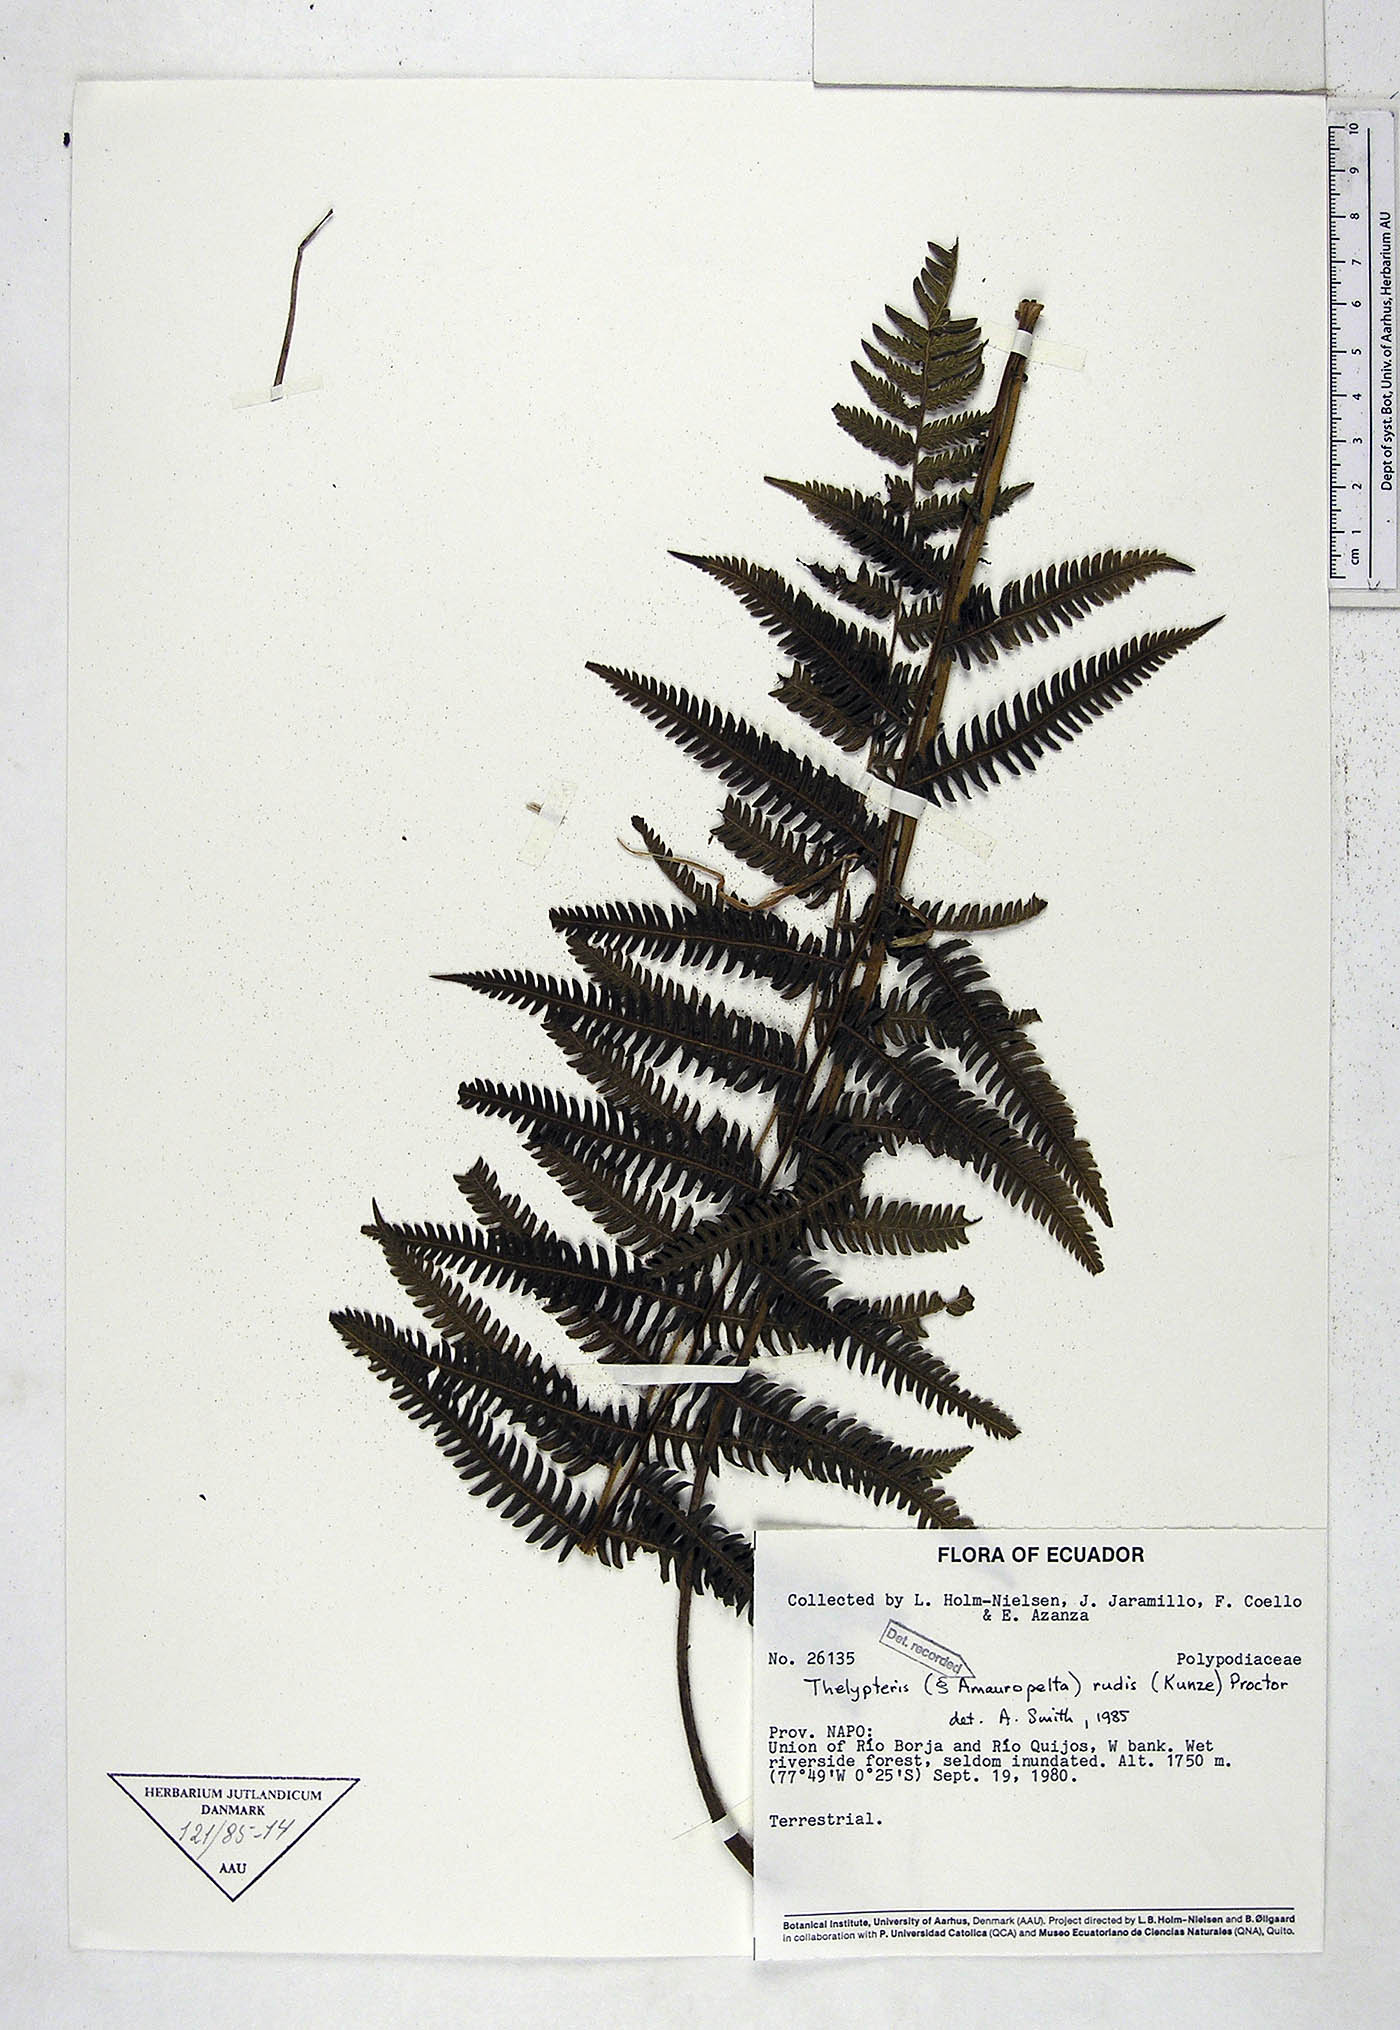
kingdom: Plantae
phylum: Tracheophyta
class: Polypodiopsida
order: Polypodiales
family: Thelypteridaceae
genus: Amauropelta
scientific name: Amauropelta rudis
